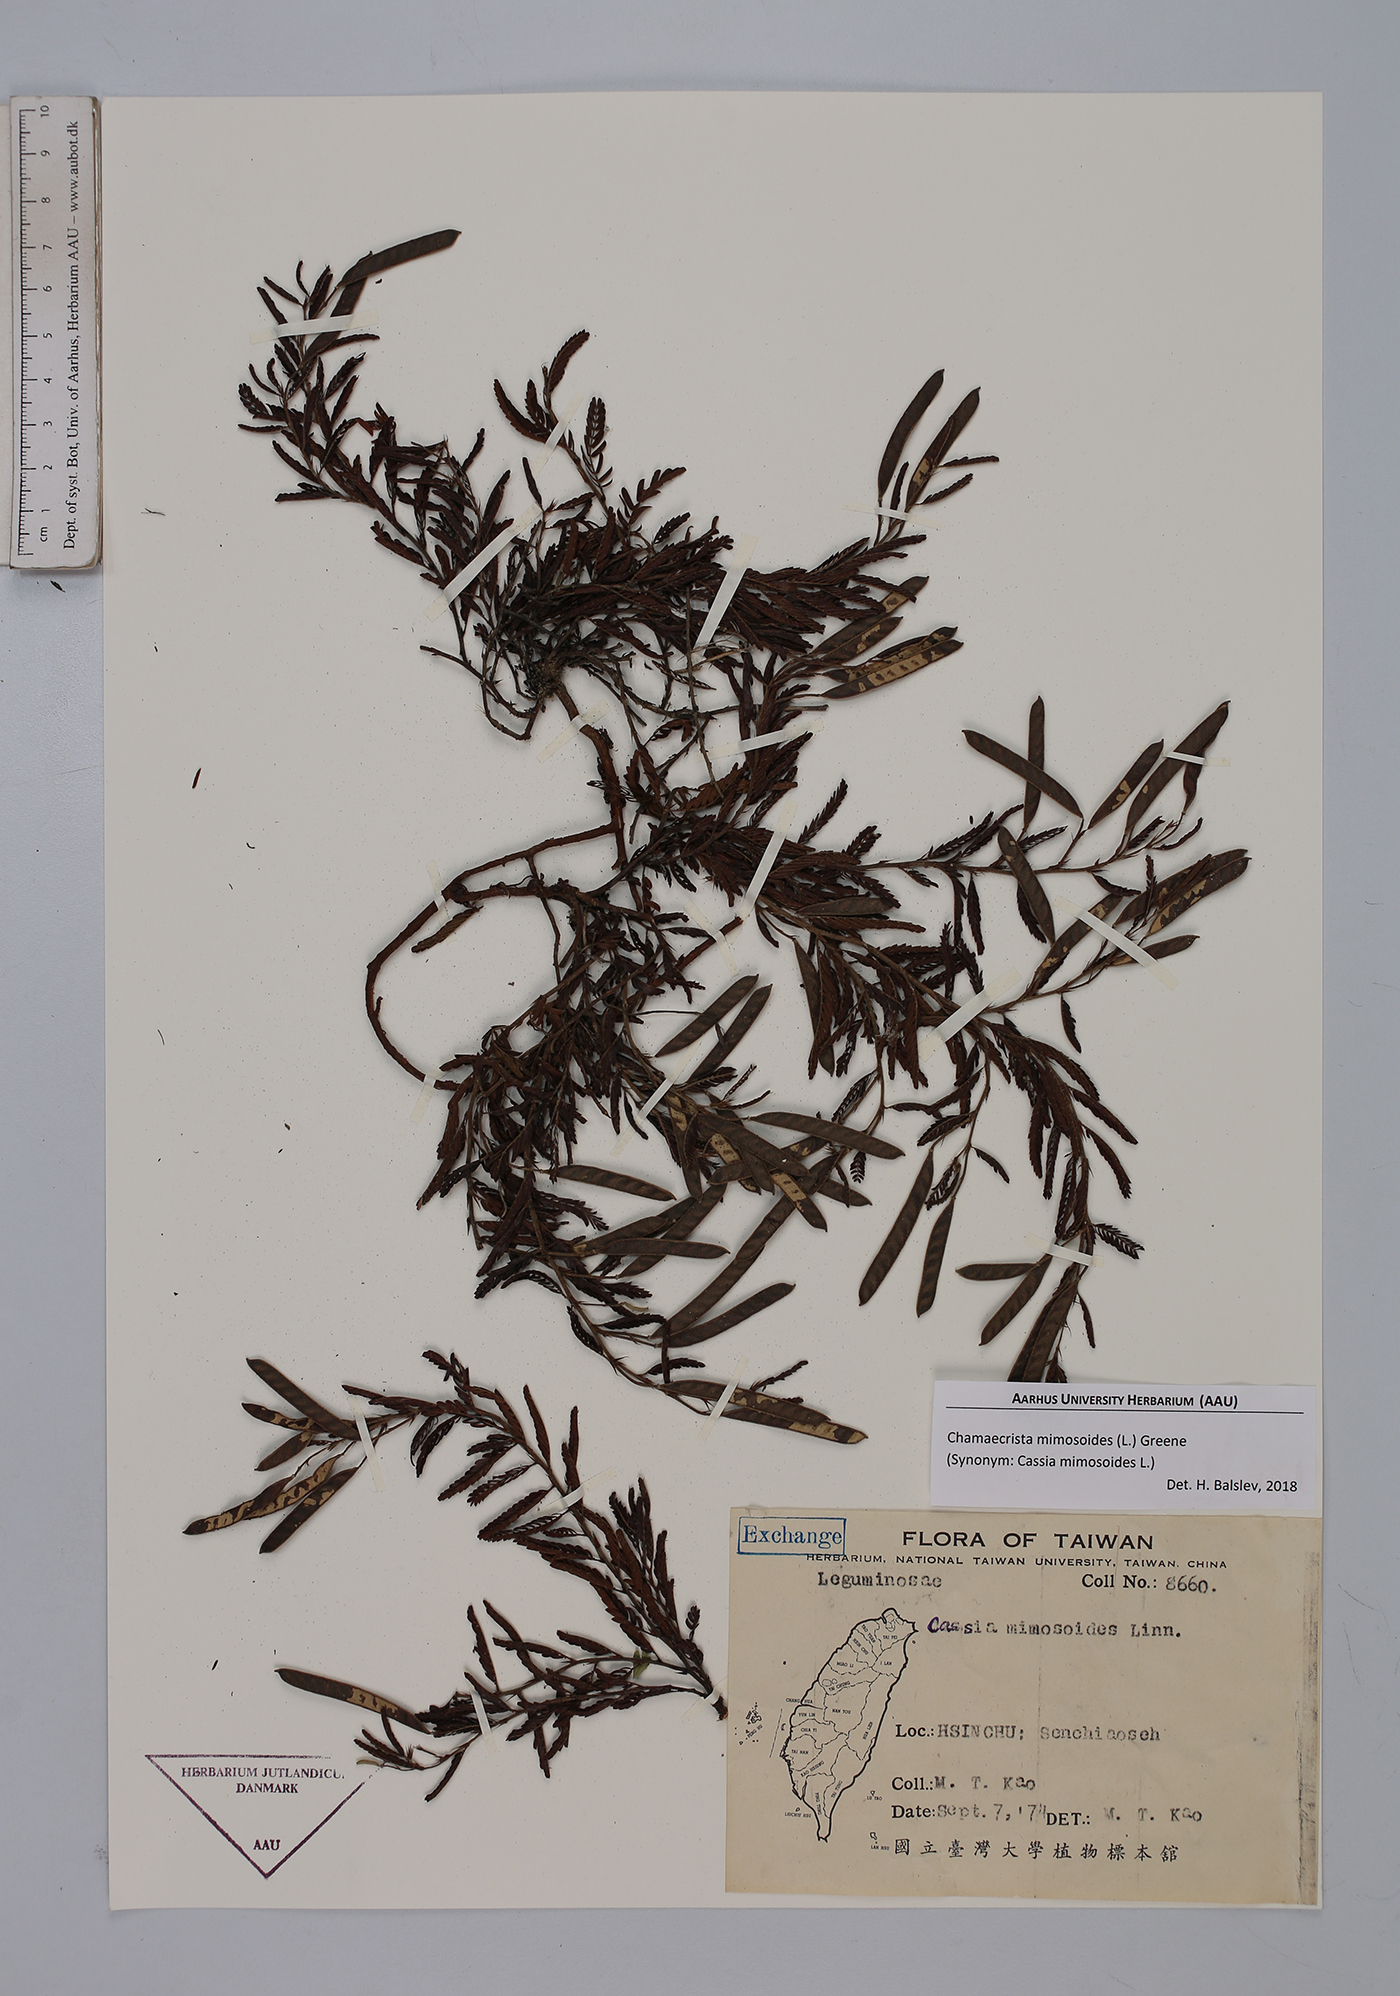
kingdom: Plantae
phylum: Tracheophyta
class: Magnoliopsida
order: Fabales
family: Fabaceae
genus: Chamaecrista
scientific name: Chamaecrista mimosoides
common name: Fish-bone cassia
